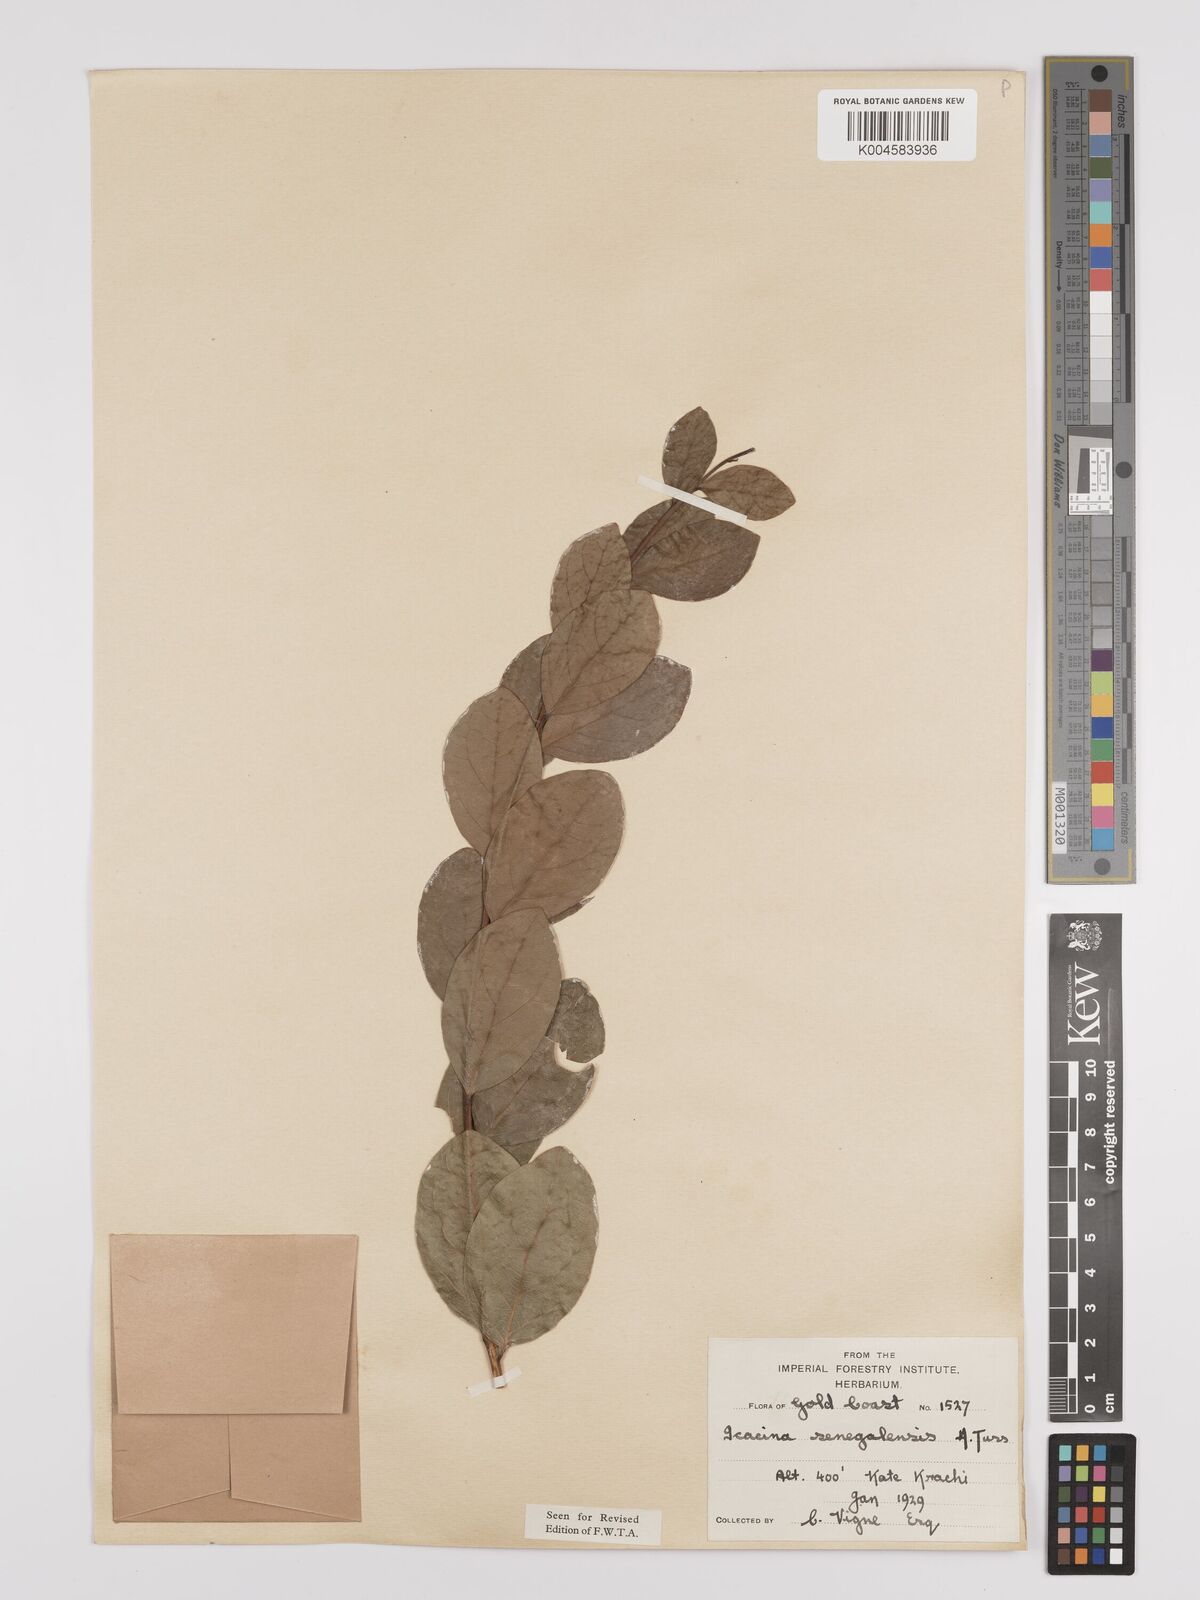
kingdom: Plantae
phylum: Tracheophyta
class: Magnoliopsida
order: Icacinales
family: Icacinaceae
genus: Icacina
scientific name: Icacina oliviformis
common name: False yam
